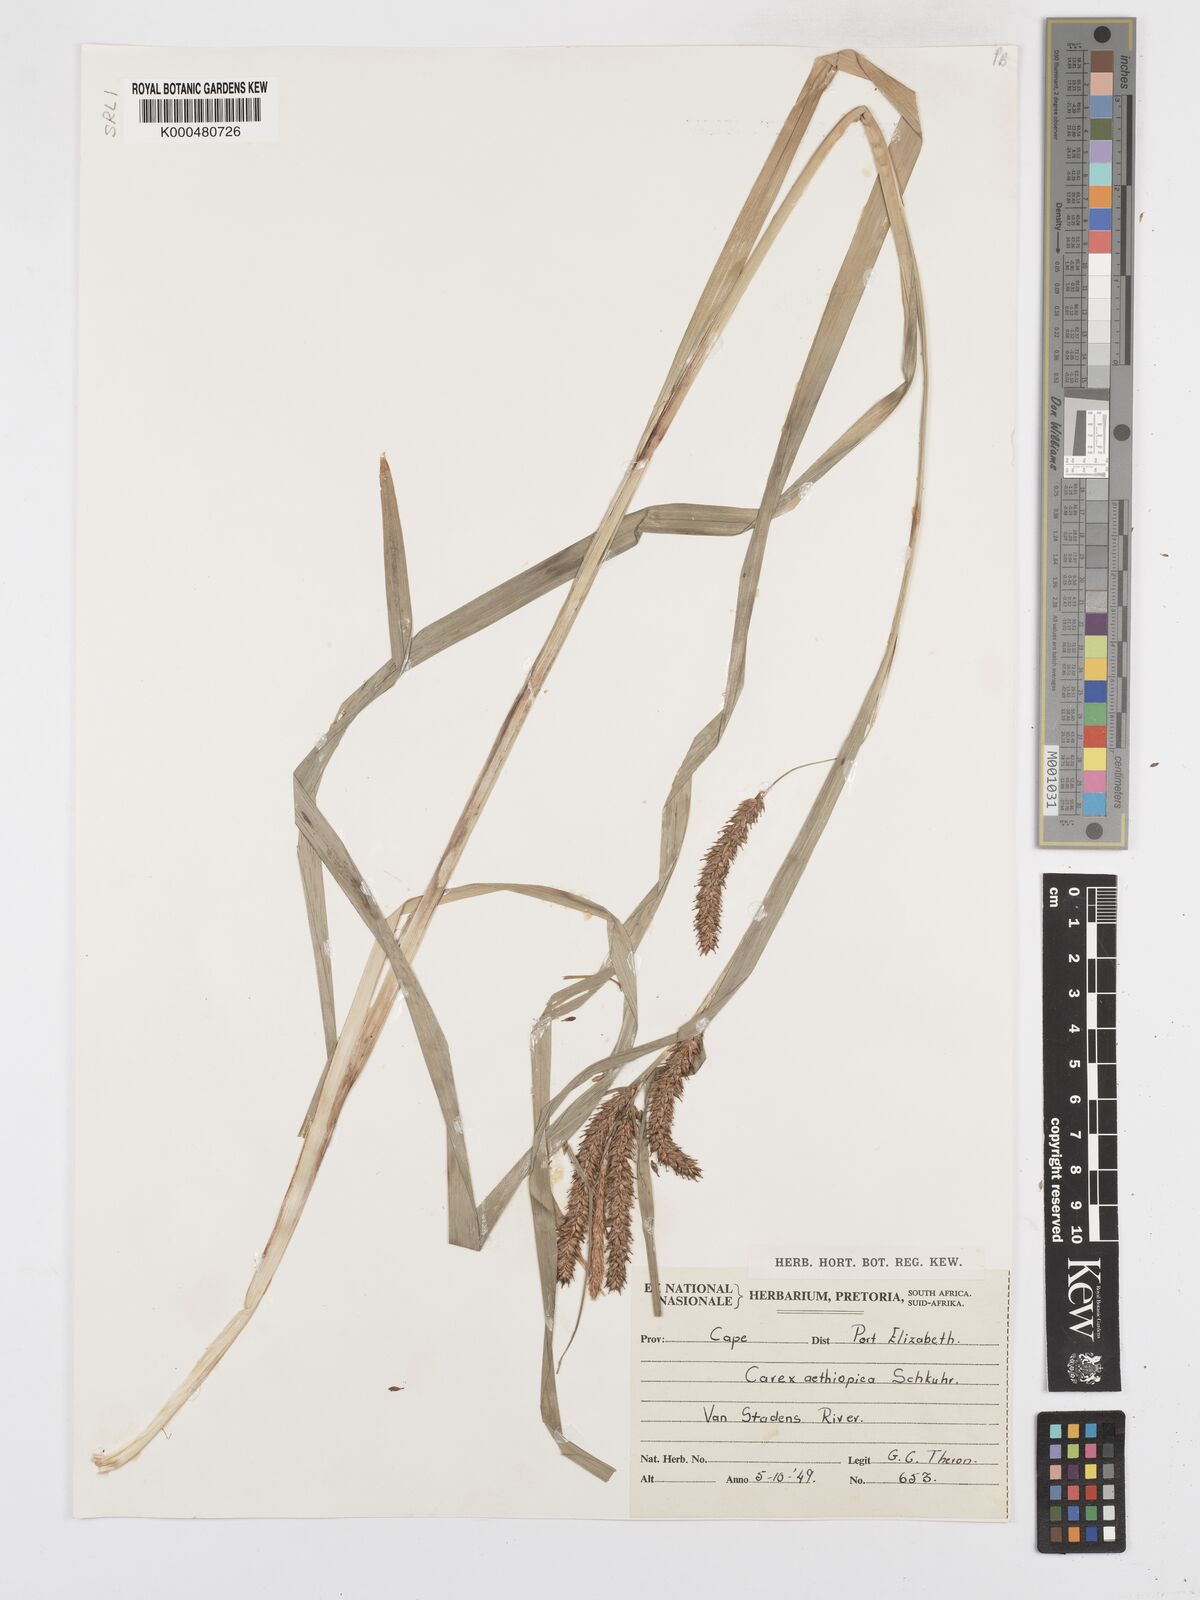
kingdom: Plantae
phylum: Tracheophyta
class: Liliopsida
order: Poales
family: Cyperaceae
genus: Carex
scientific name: Carex aethiopica
